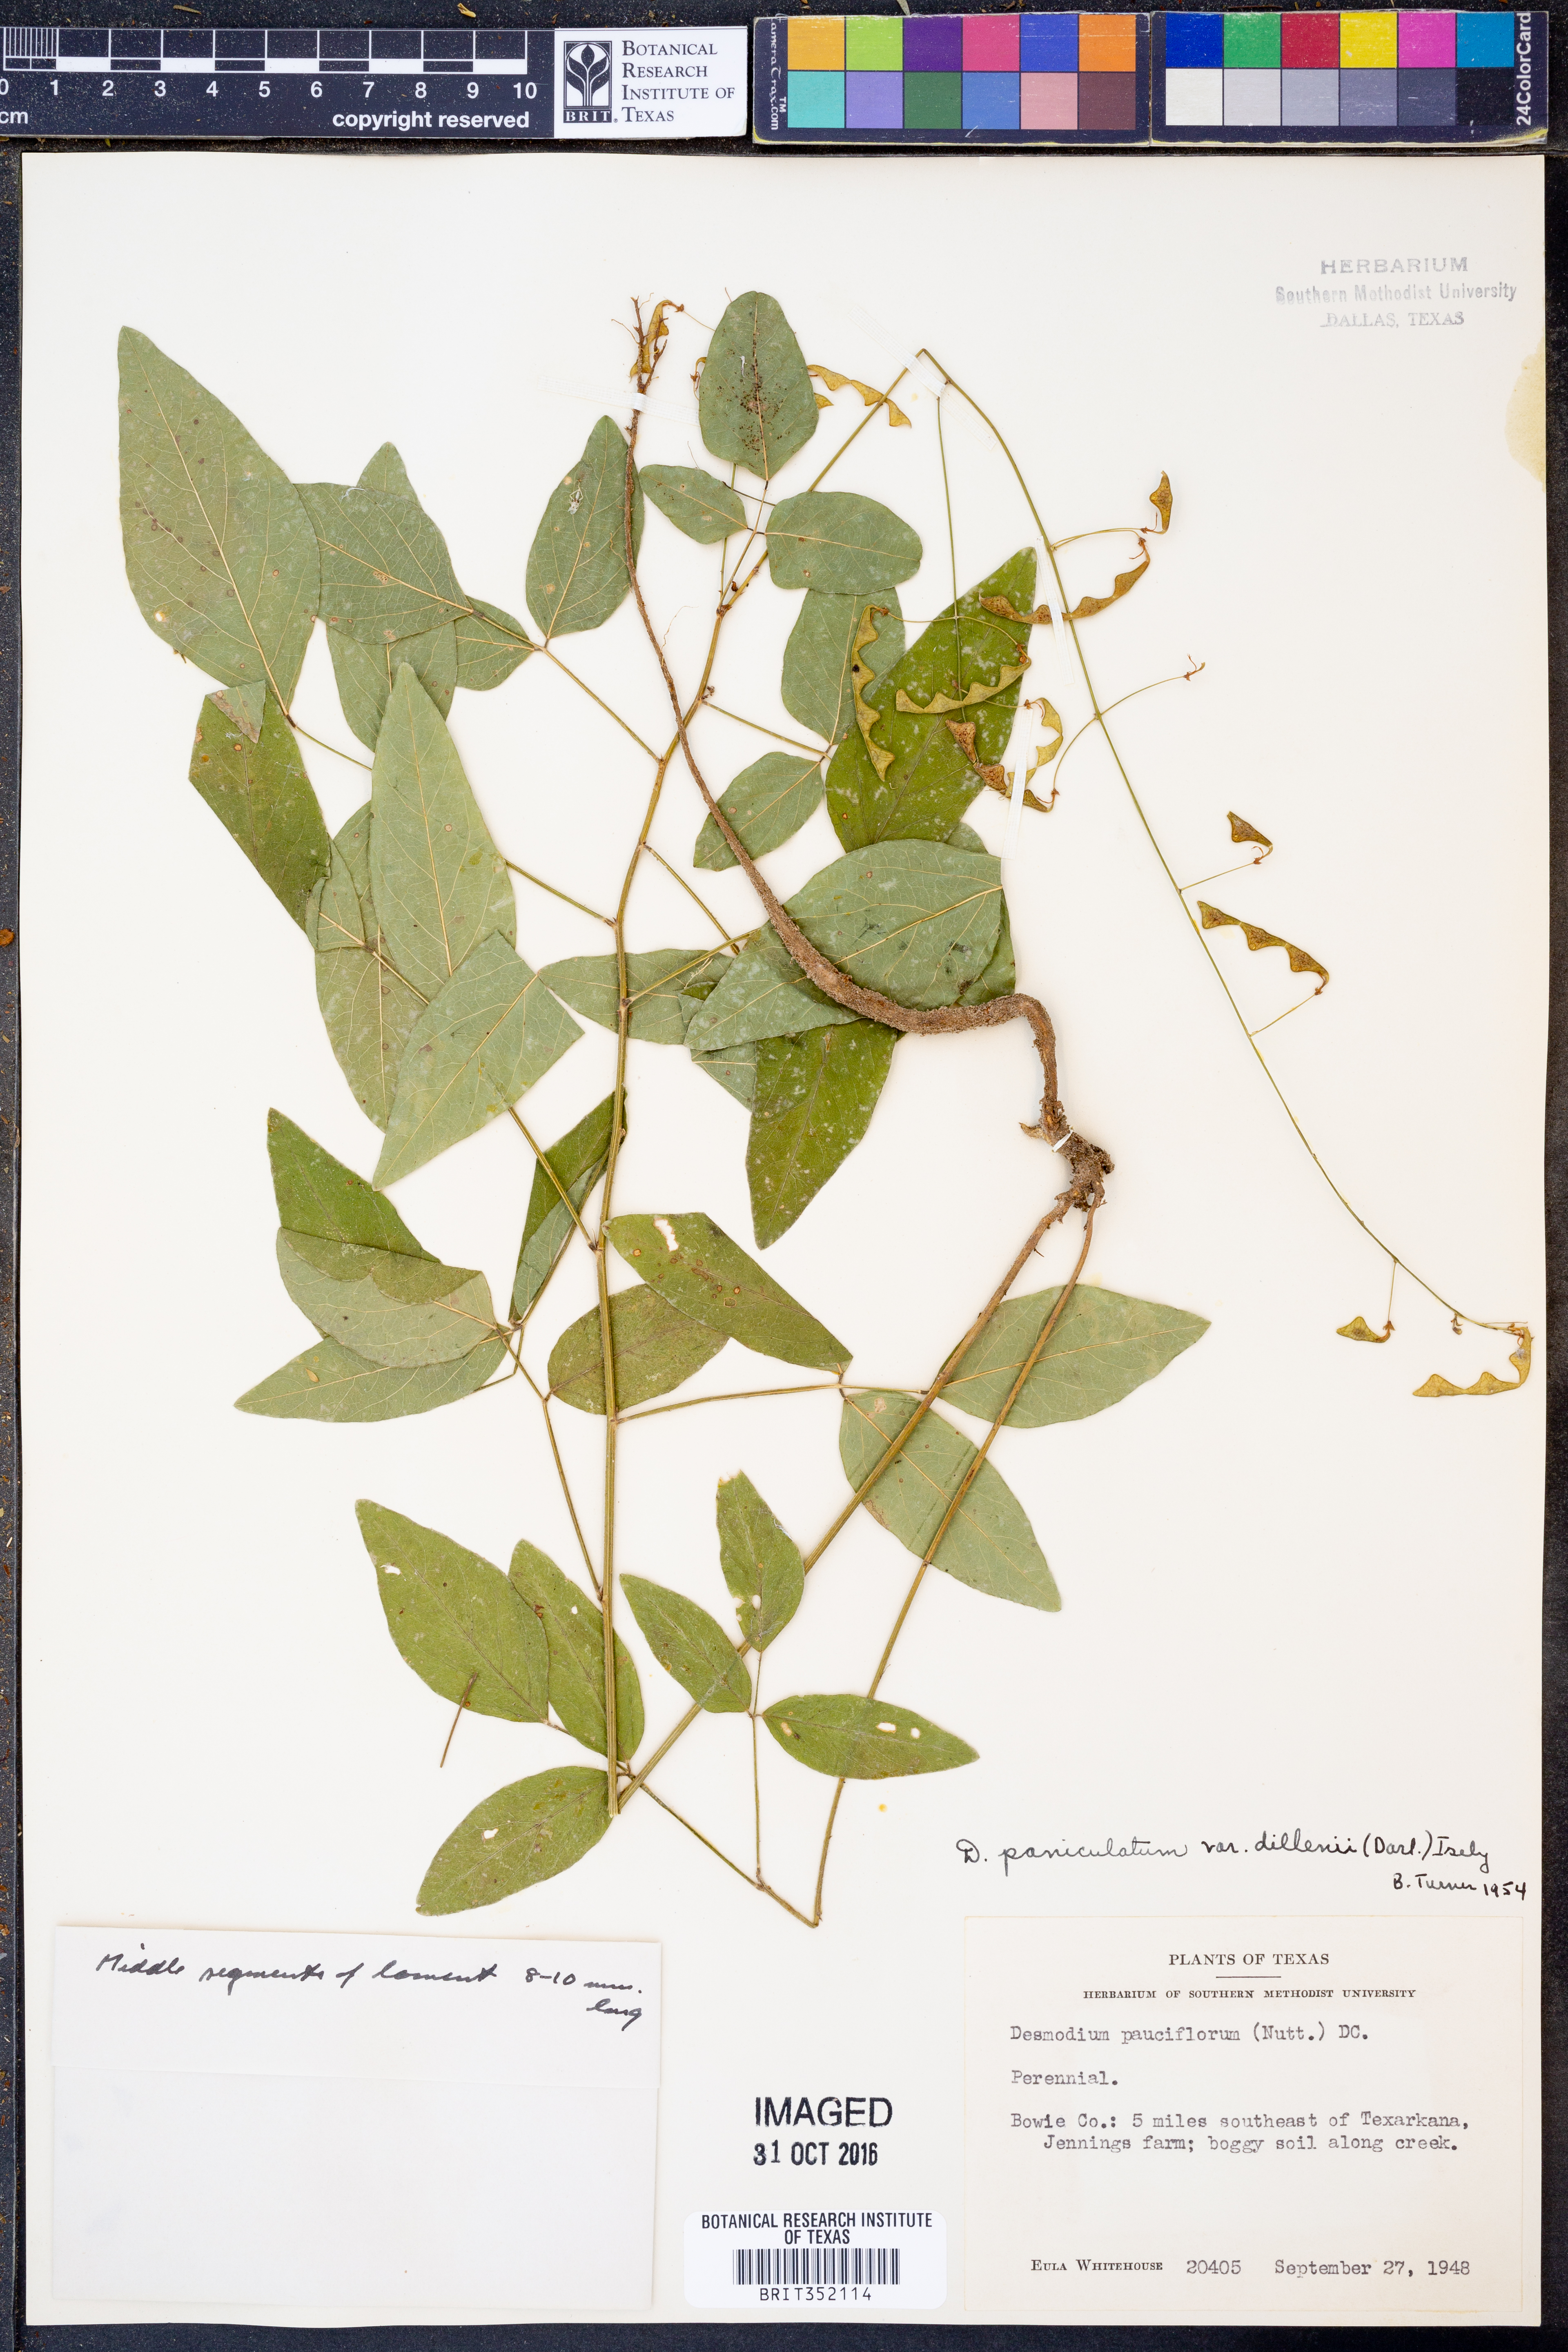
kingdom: Plantae
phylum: Tracheophyta
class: Magnoliopsida
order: Fabales
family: Fabaceae
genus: Hylodesmum
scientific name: Hylodesmum pauciflorum
